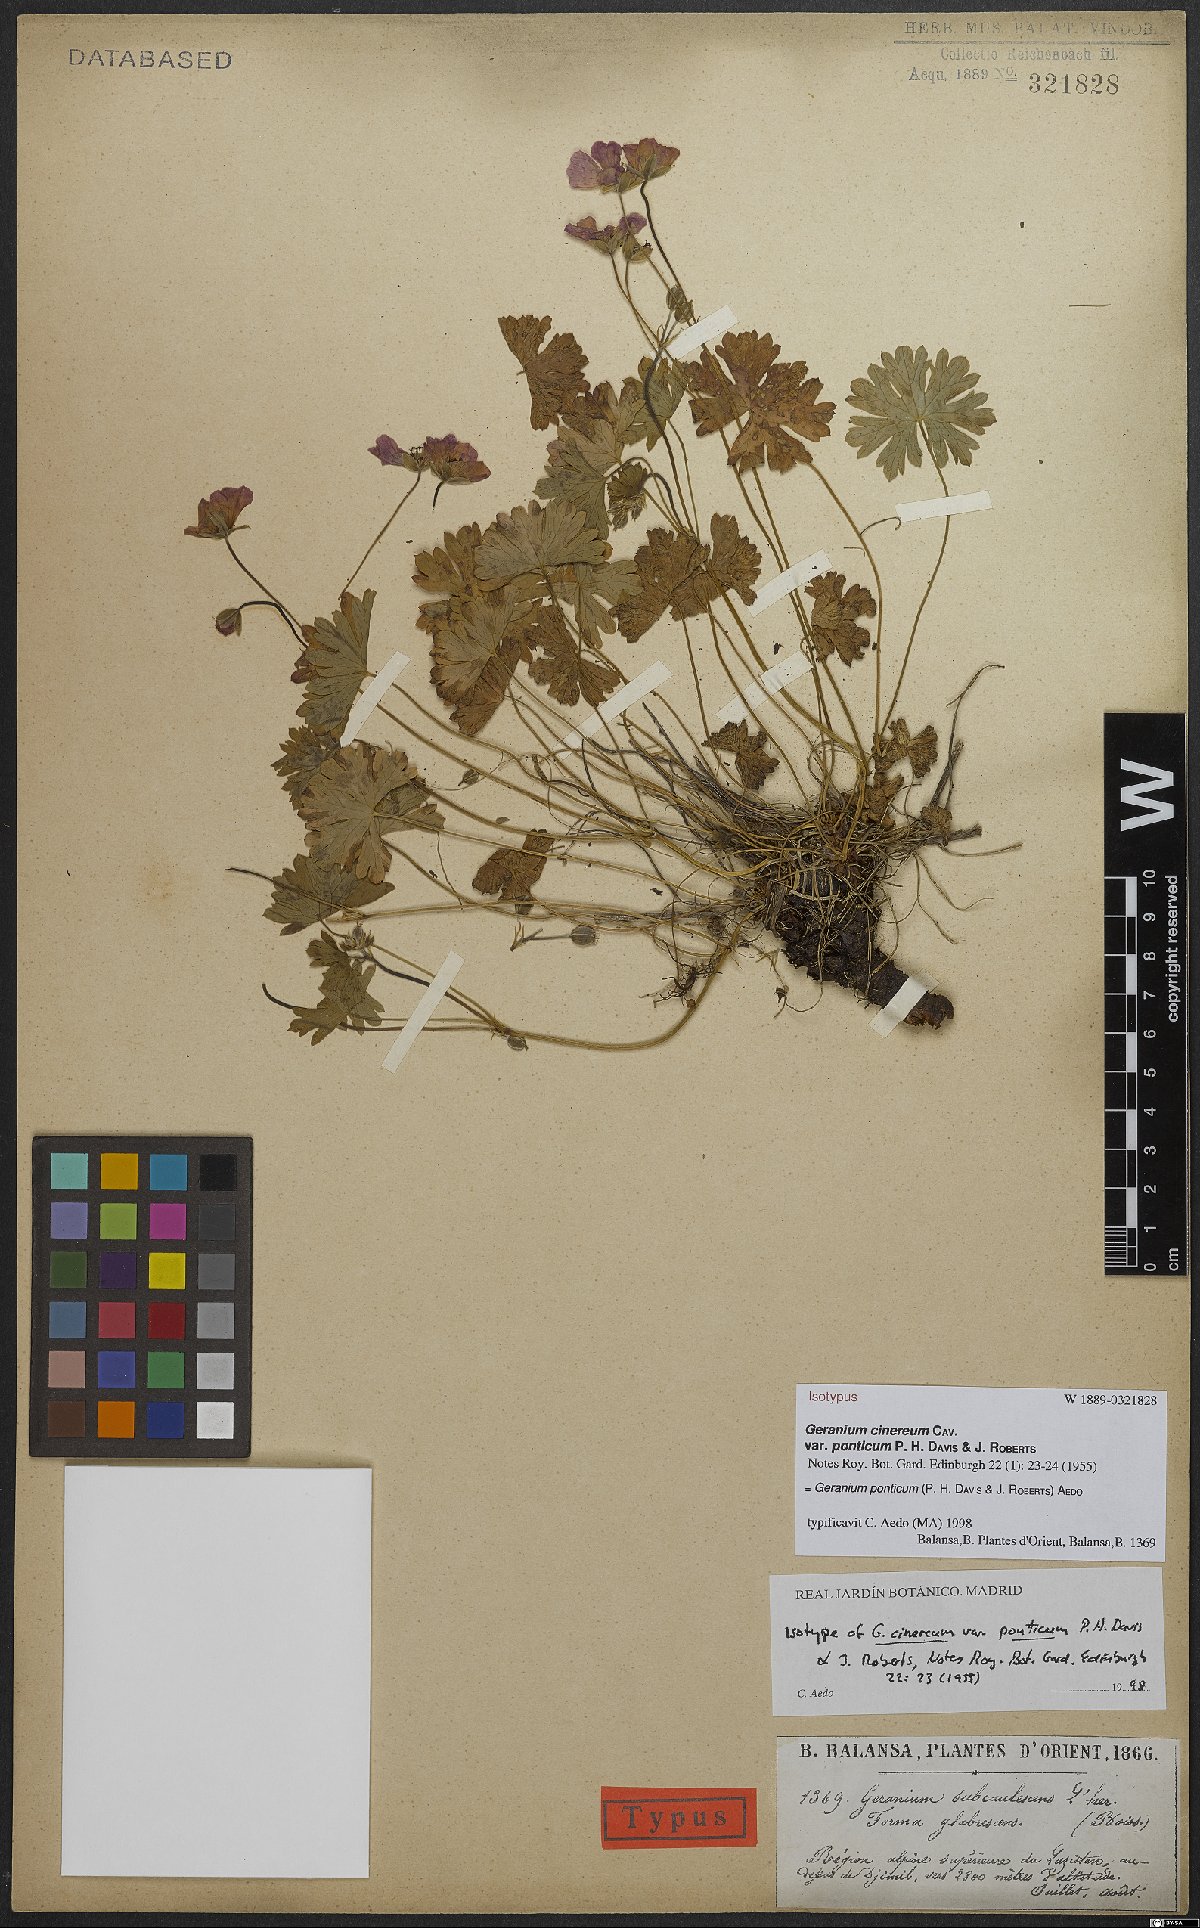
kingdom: Plantae
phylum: Tracheophyta
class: Magnoliopsida
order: Geraniales
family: Geraniaceae
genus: Geranium
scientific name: Geranium ponticum
